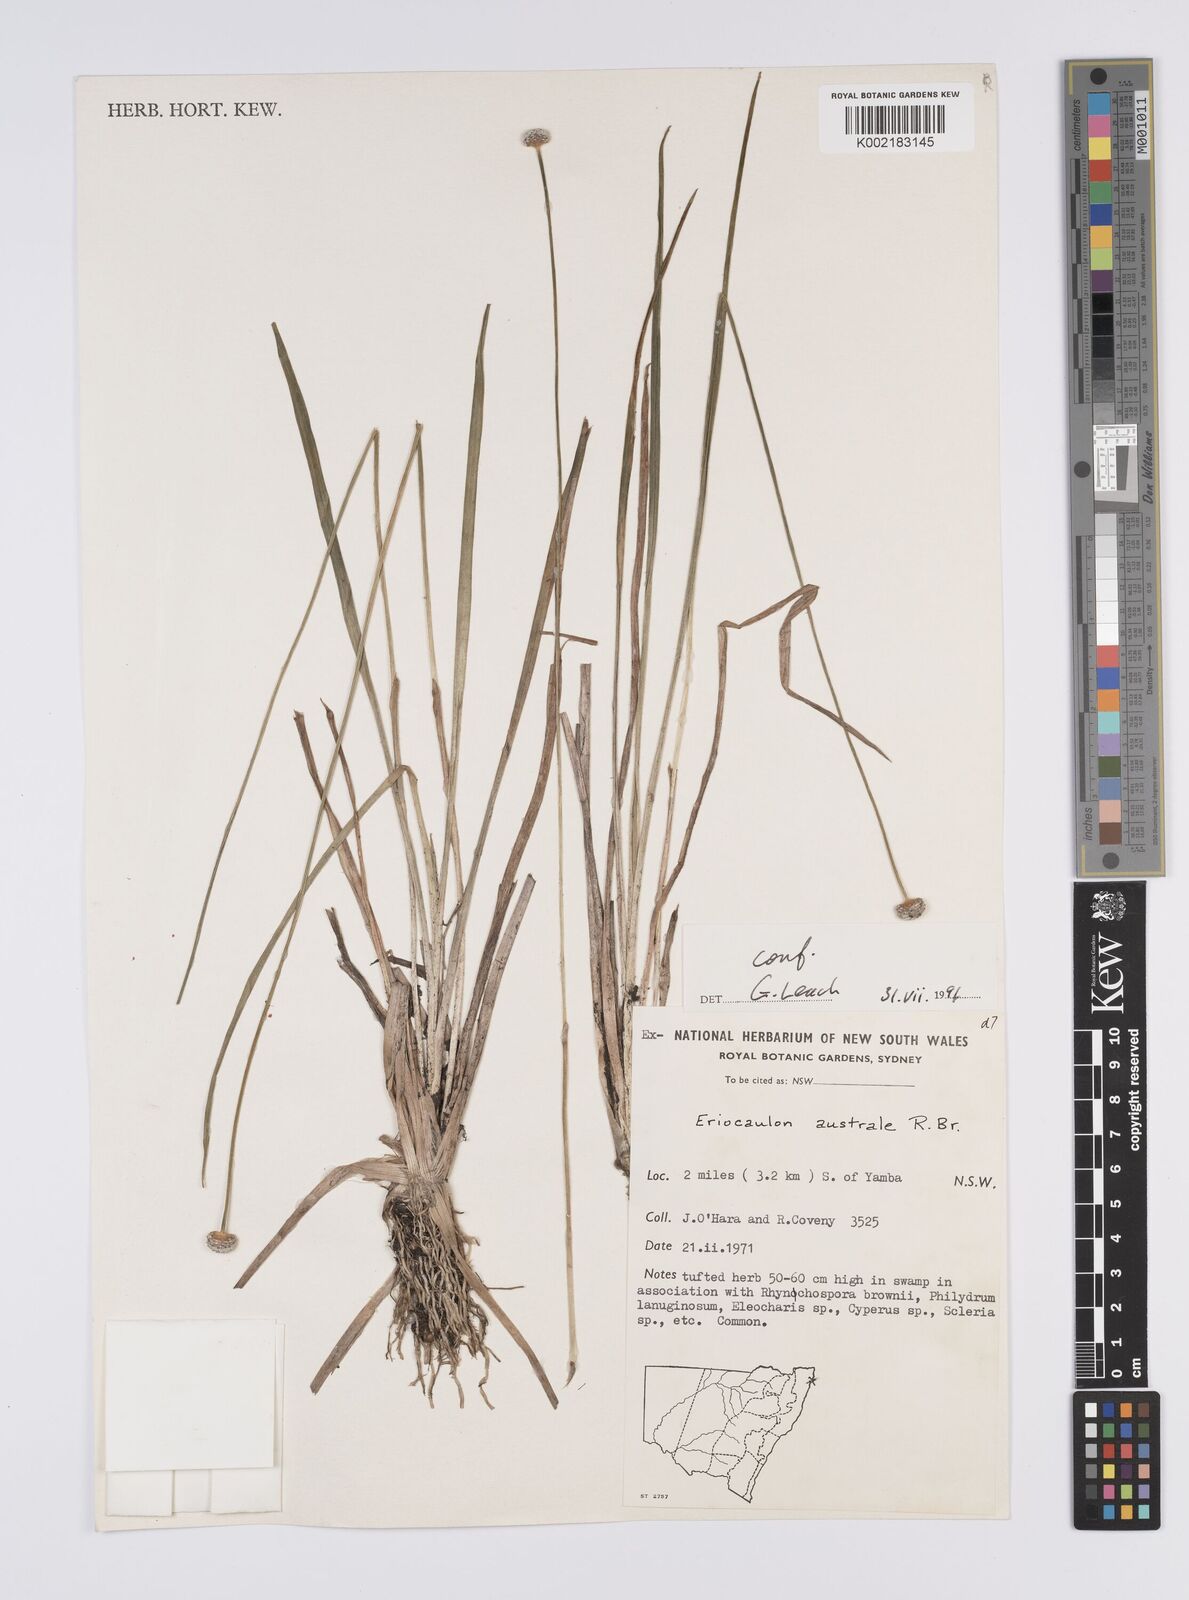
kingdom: Plantae
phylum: Tracheophyta
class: Liliopsida
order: Poales
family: Eriocaulaceae
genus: Eriocaulon
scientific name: Eriocaulon australe
